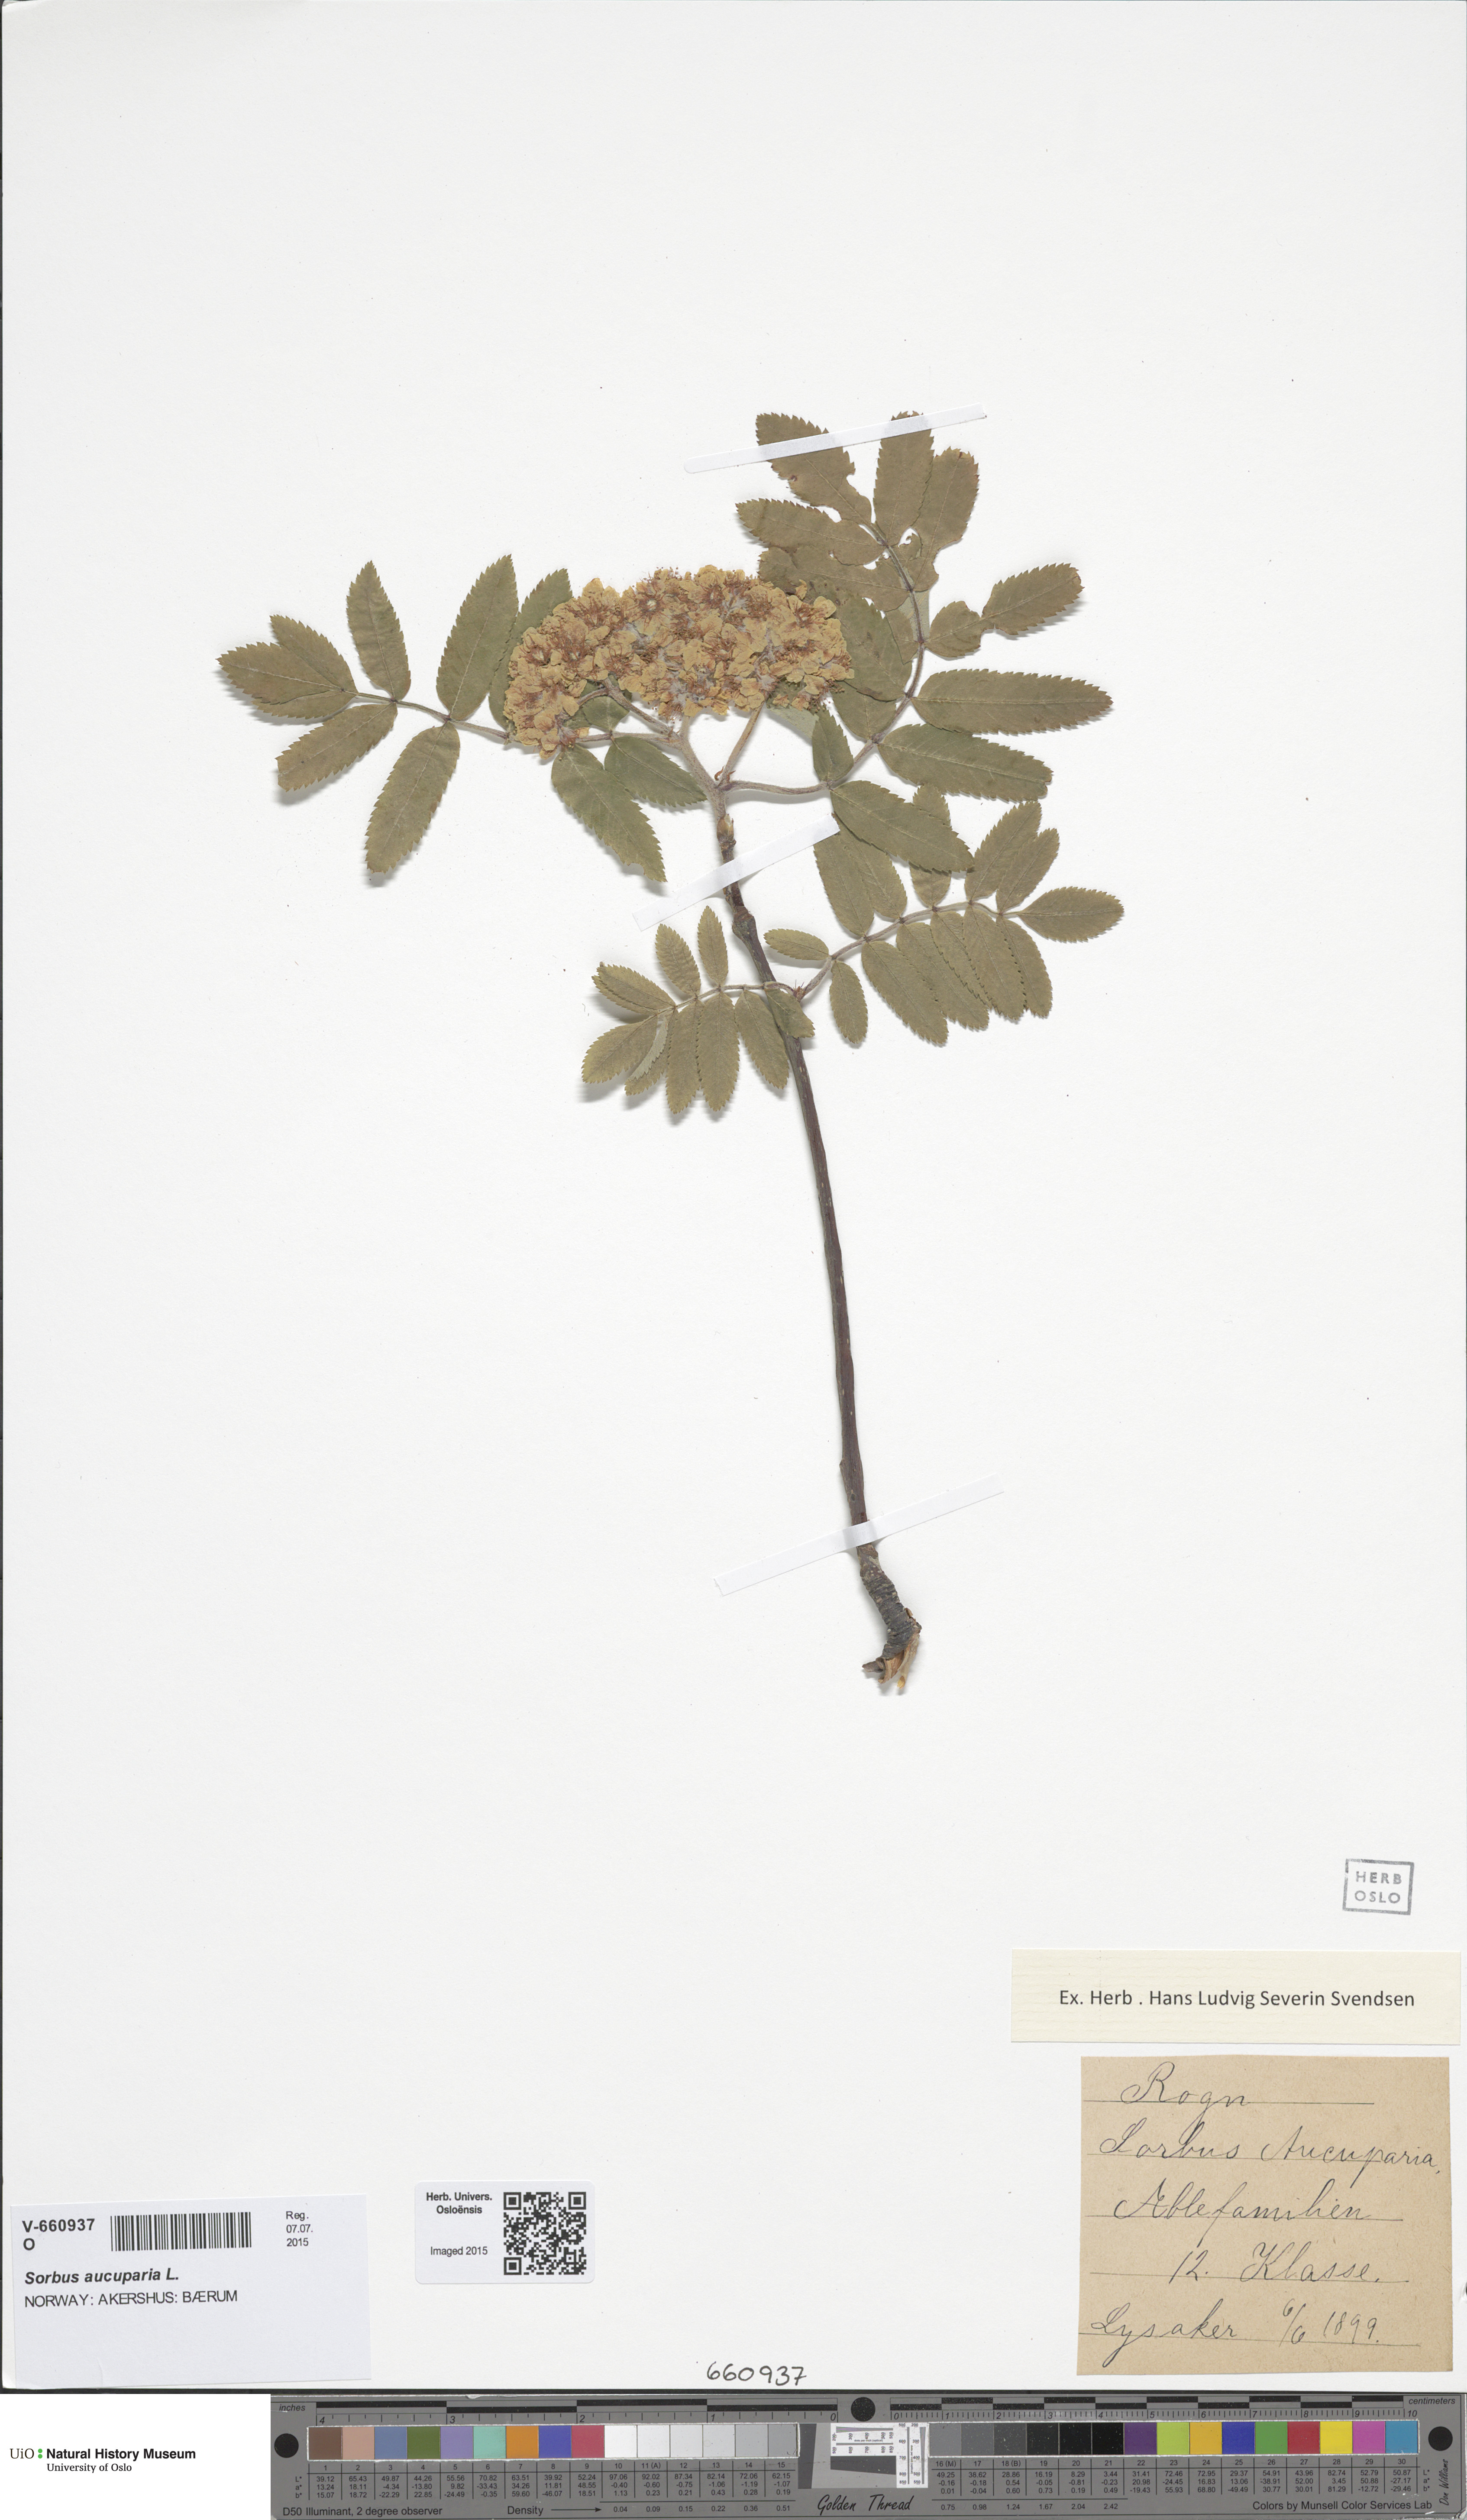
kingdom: Plantae
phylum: Tracheophyta
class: Magnoliopsida
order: Rosales
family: Rosaceae
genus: Sorbus
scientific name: Sorbus aucuparia
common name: Rowan
